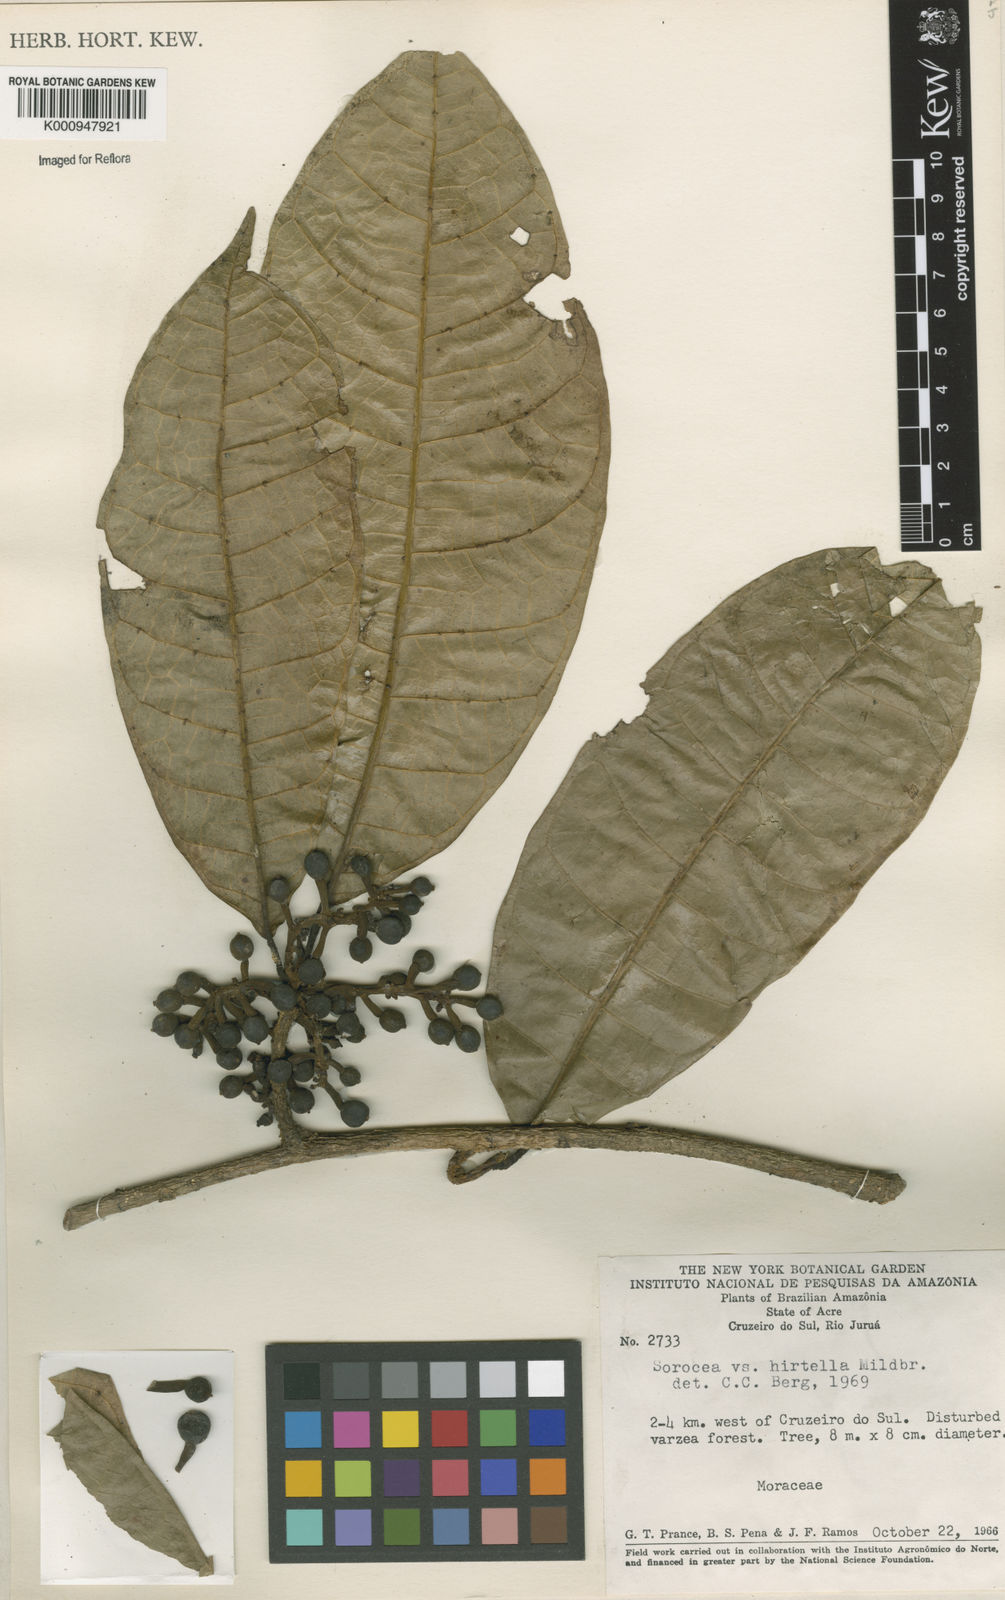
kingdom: Plantae
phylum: Tracheophyta
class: Magnoliopsida
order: Rosales
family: Moraceae
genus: Sorocea
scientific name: Sorocea pubivena
